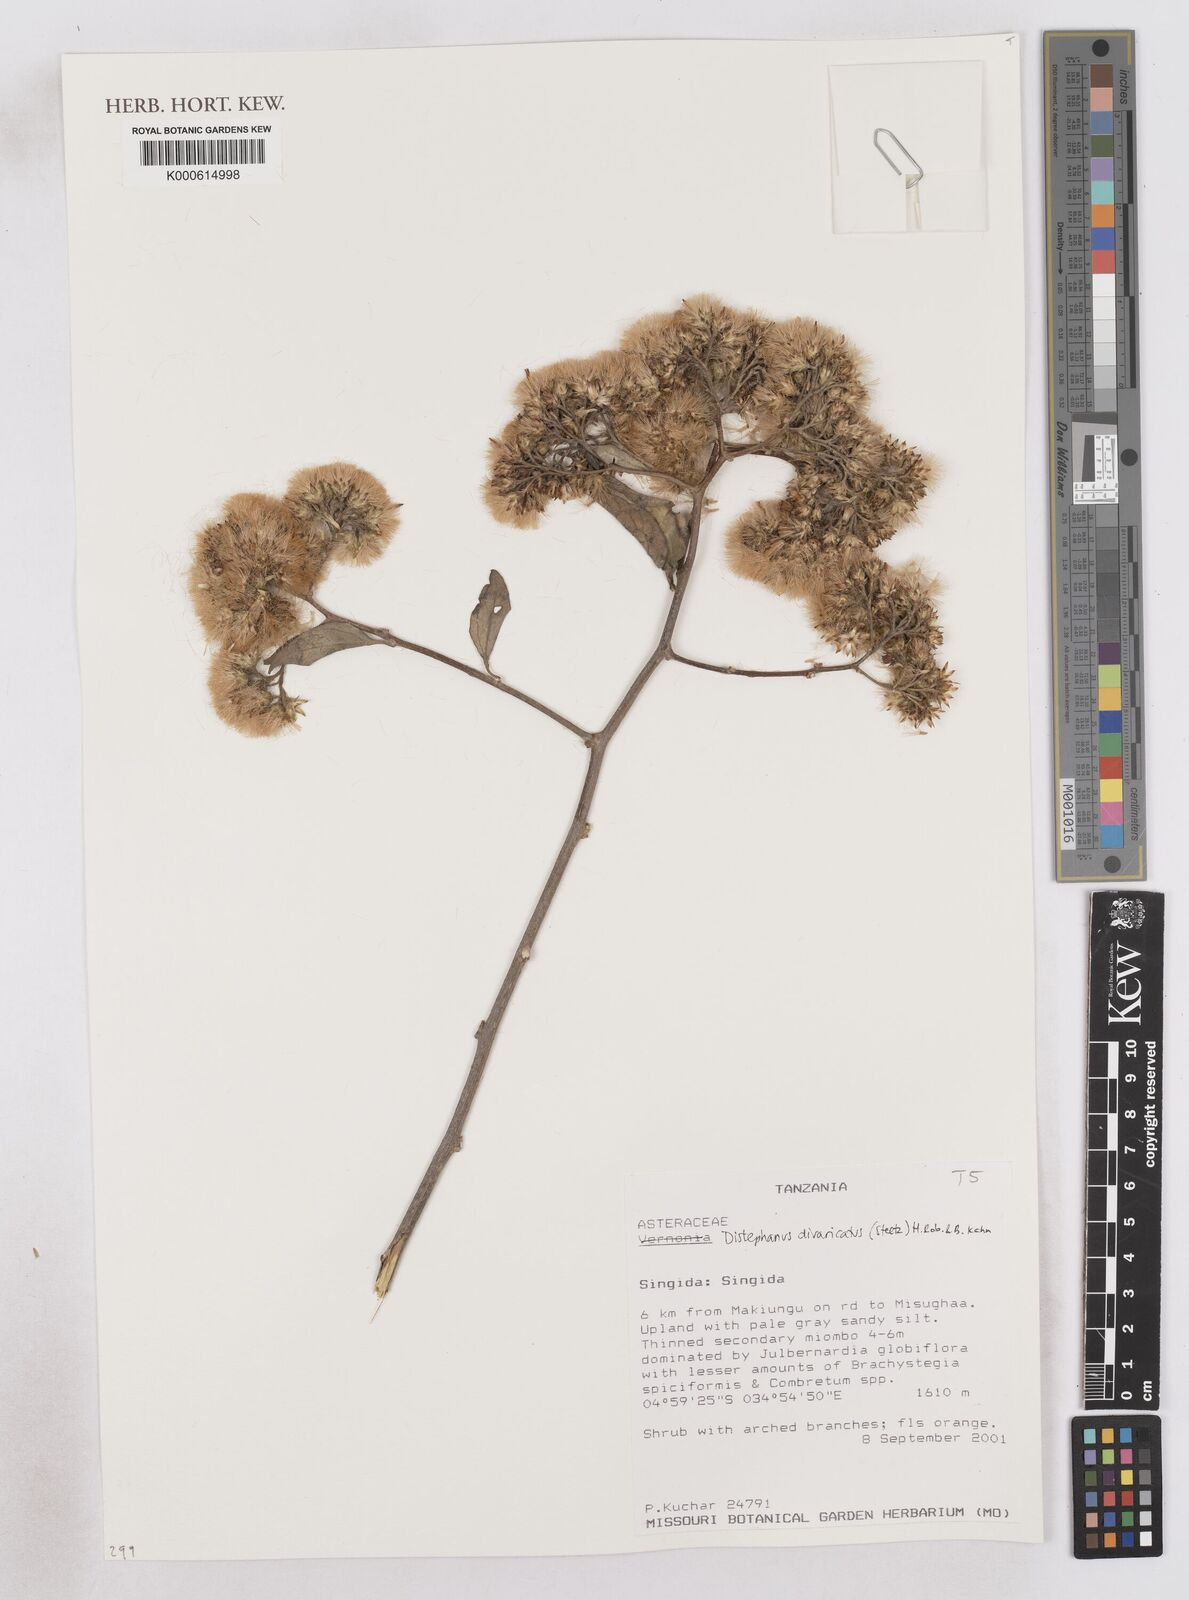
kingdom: Plantae
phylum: Tracheophyta
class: Magnoliopsida
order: Asterales
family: Asteraceae
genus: Distephanus
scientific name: Distephanus divaricatus
